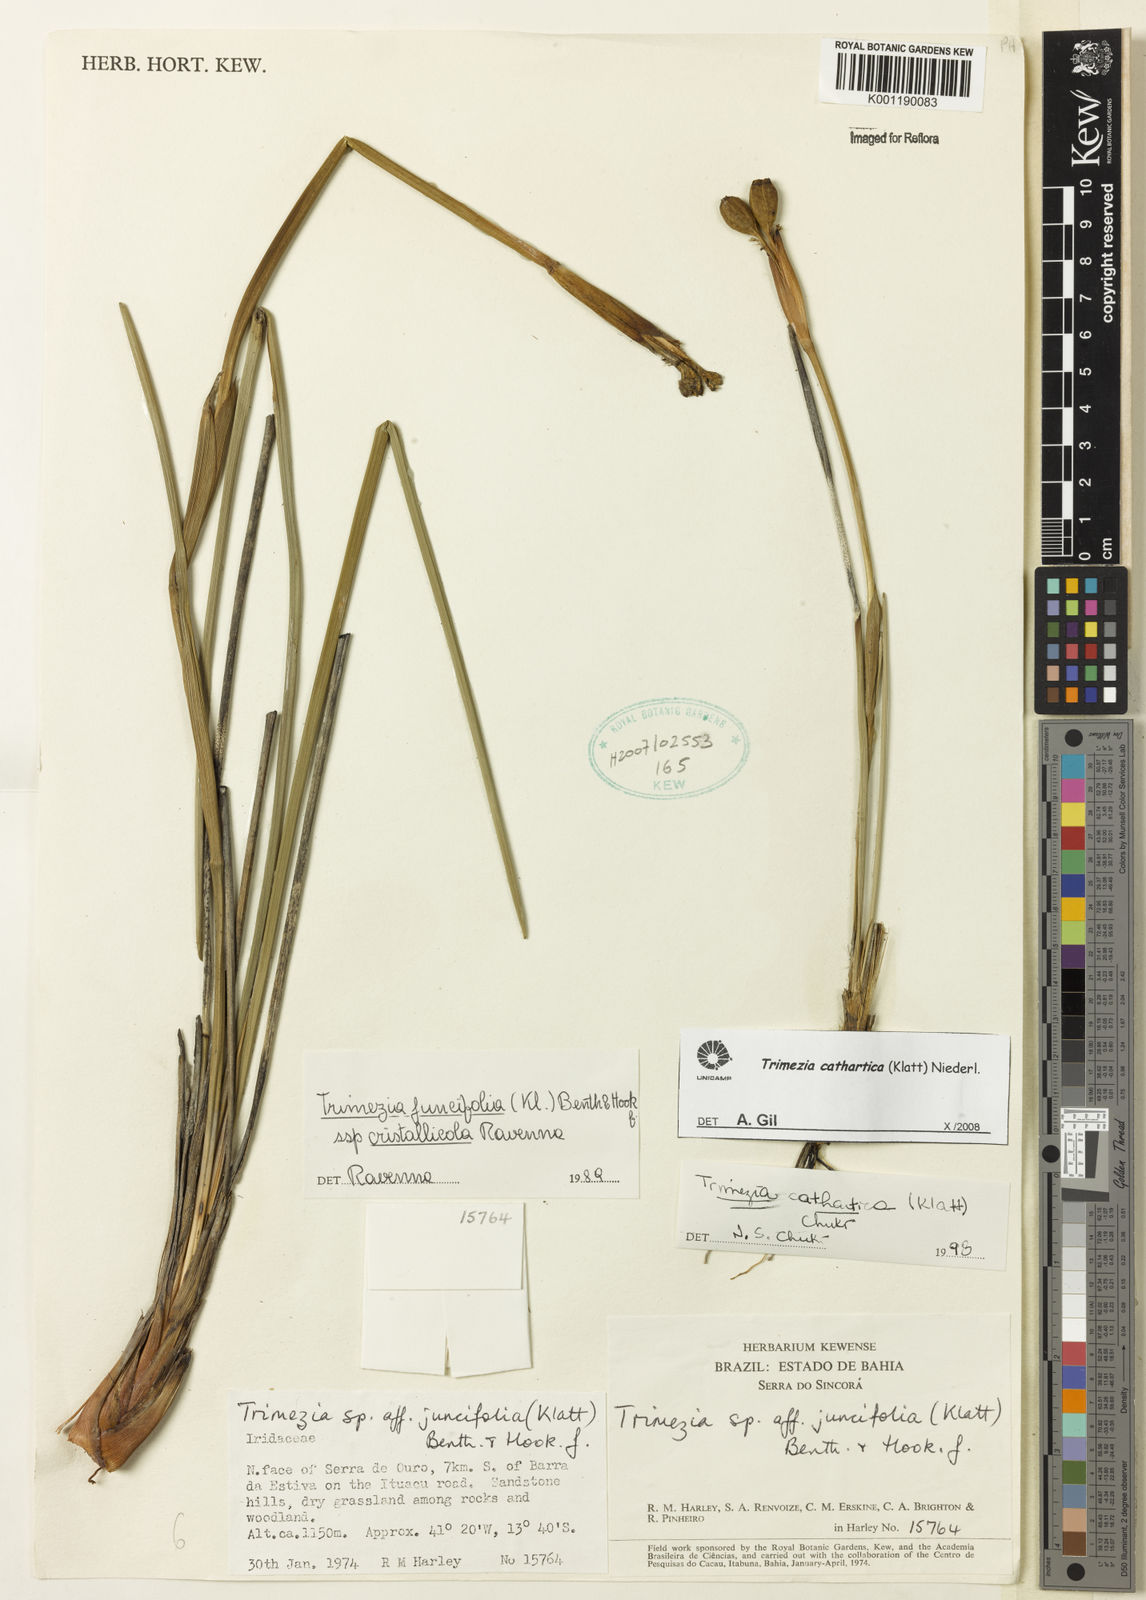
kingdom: Plantae
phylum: Tracheophyta
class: Liliopsida
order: Asparagales
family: Iridaceae
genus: Trimezia
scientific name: Trimezia cathartica
